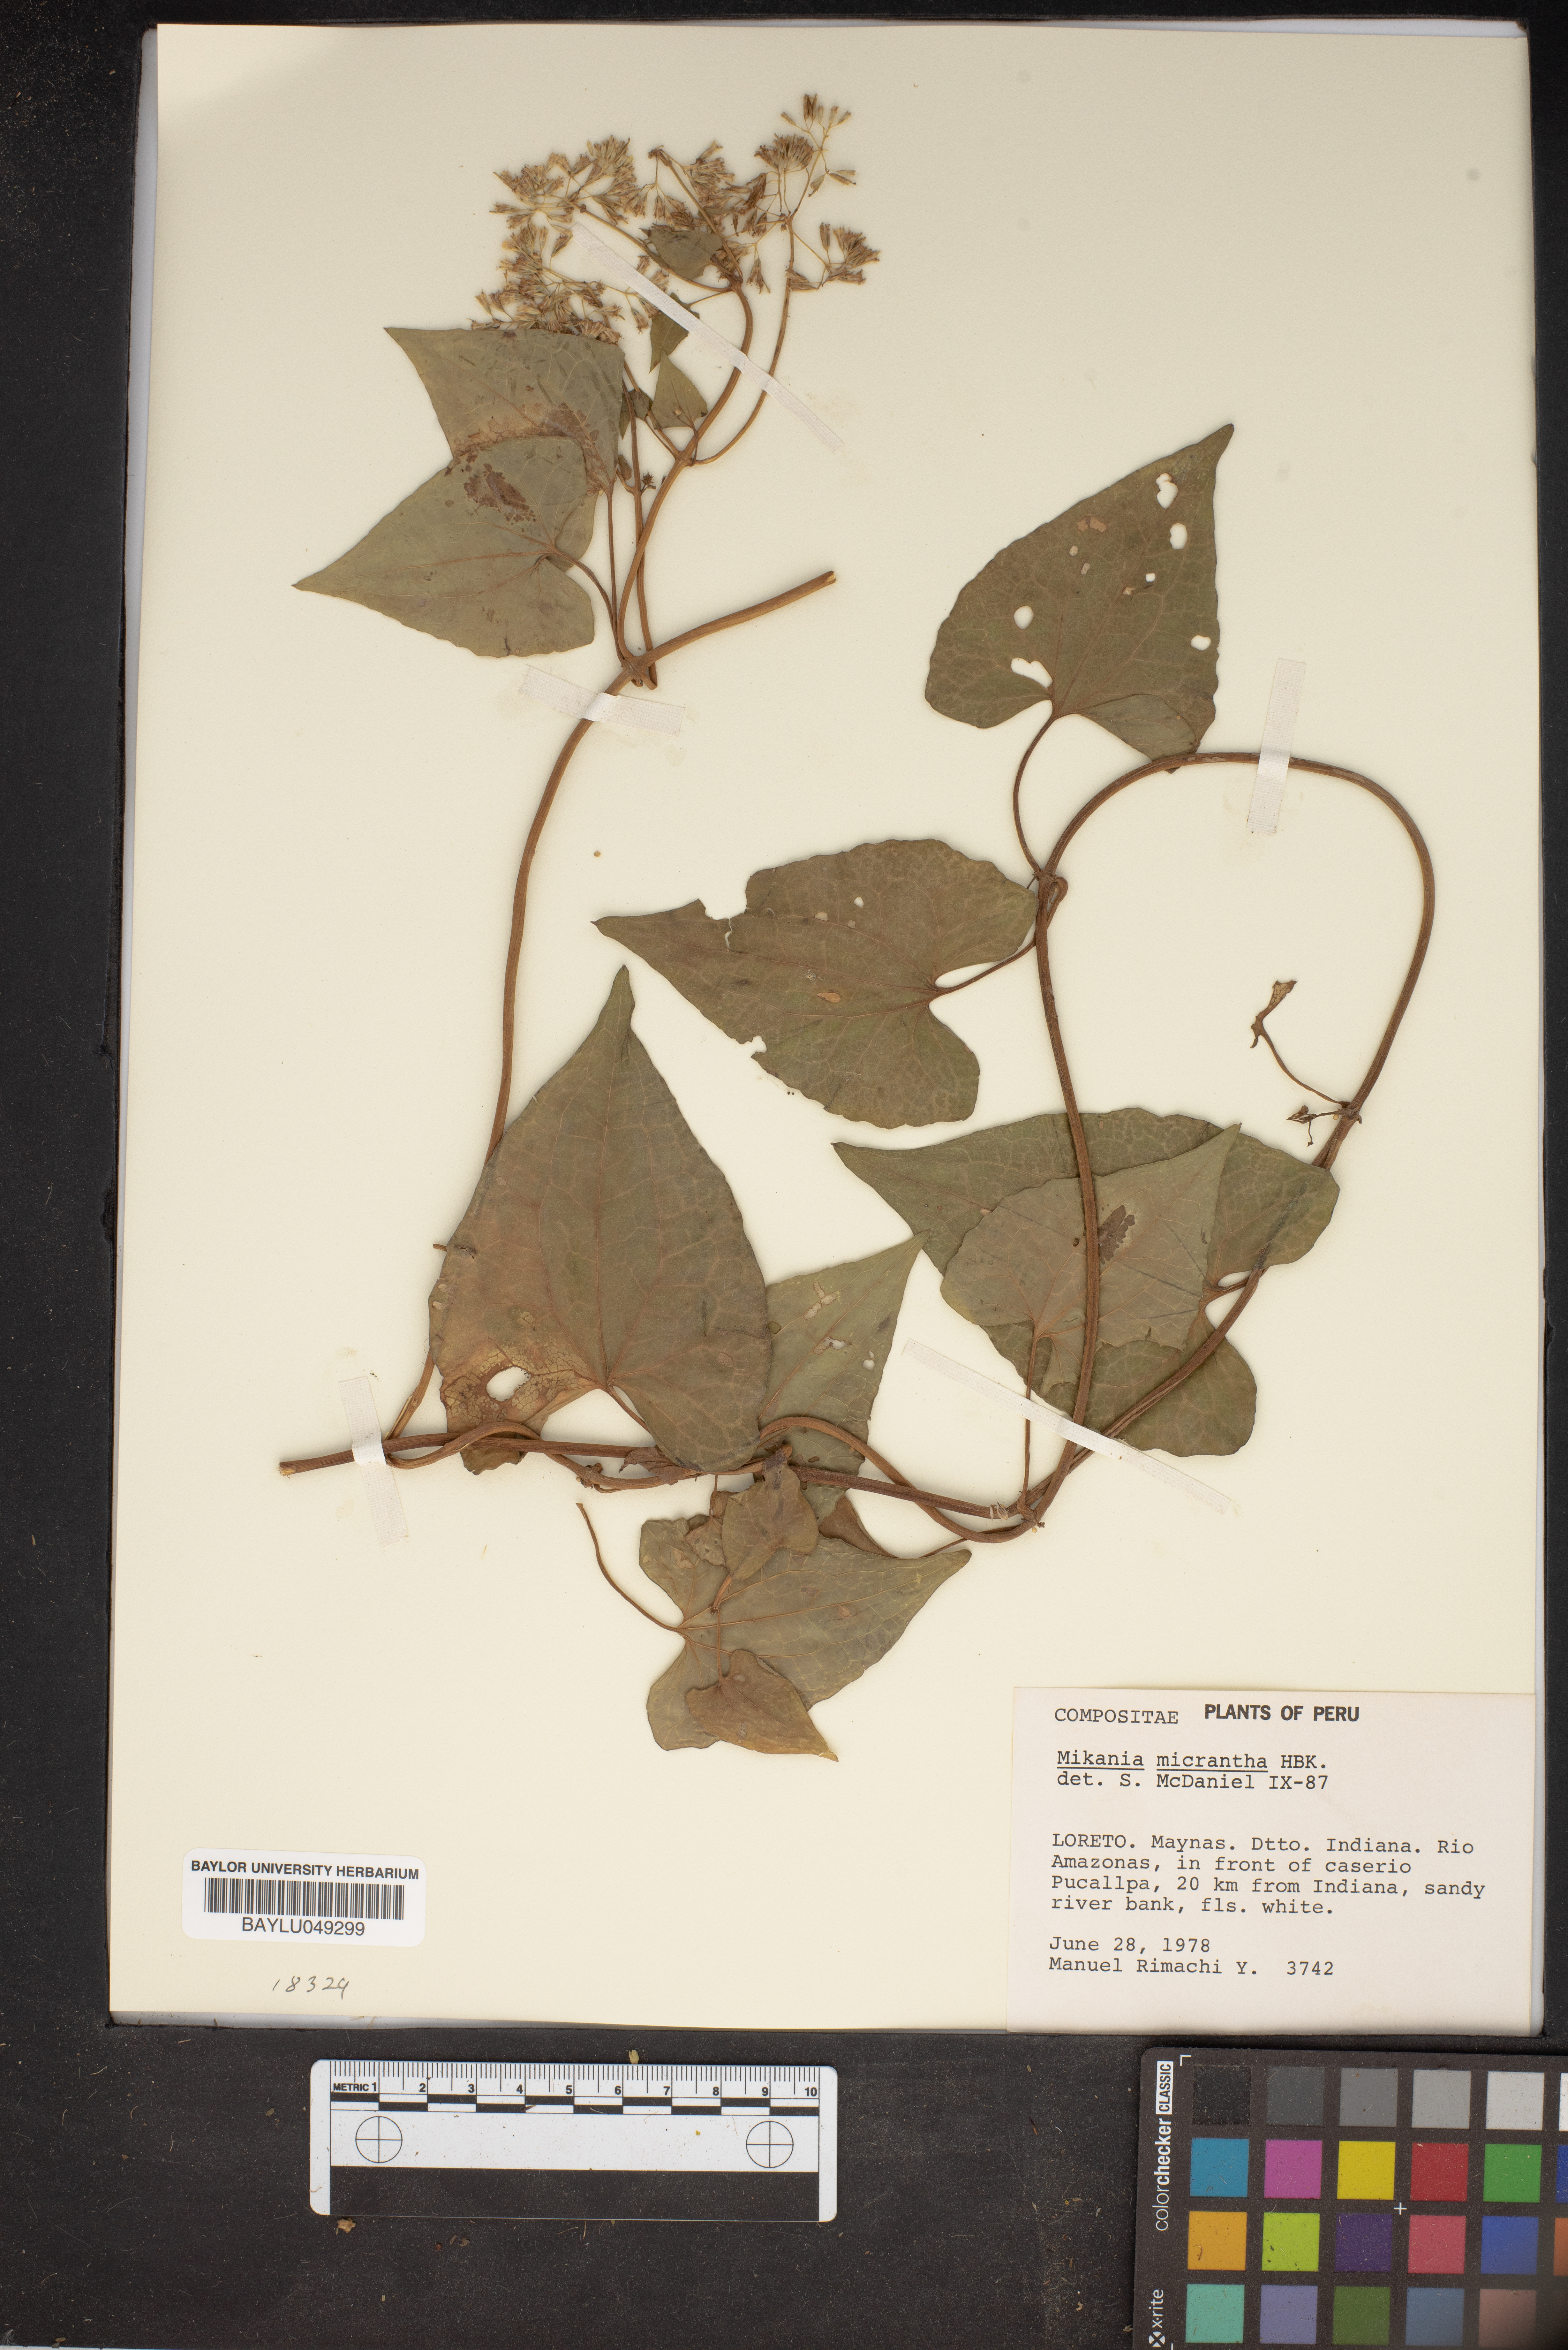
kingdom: Plantae
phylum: Tracheophyta
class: Magnoliopsida
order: Asterales
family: Asteraceae
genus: Mikania
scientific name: Mikania micrantha
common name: Mile-a-minute
